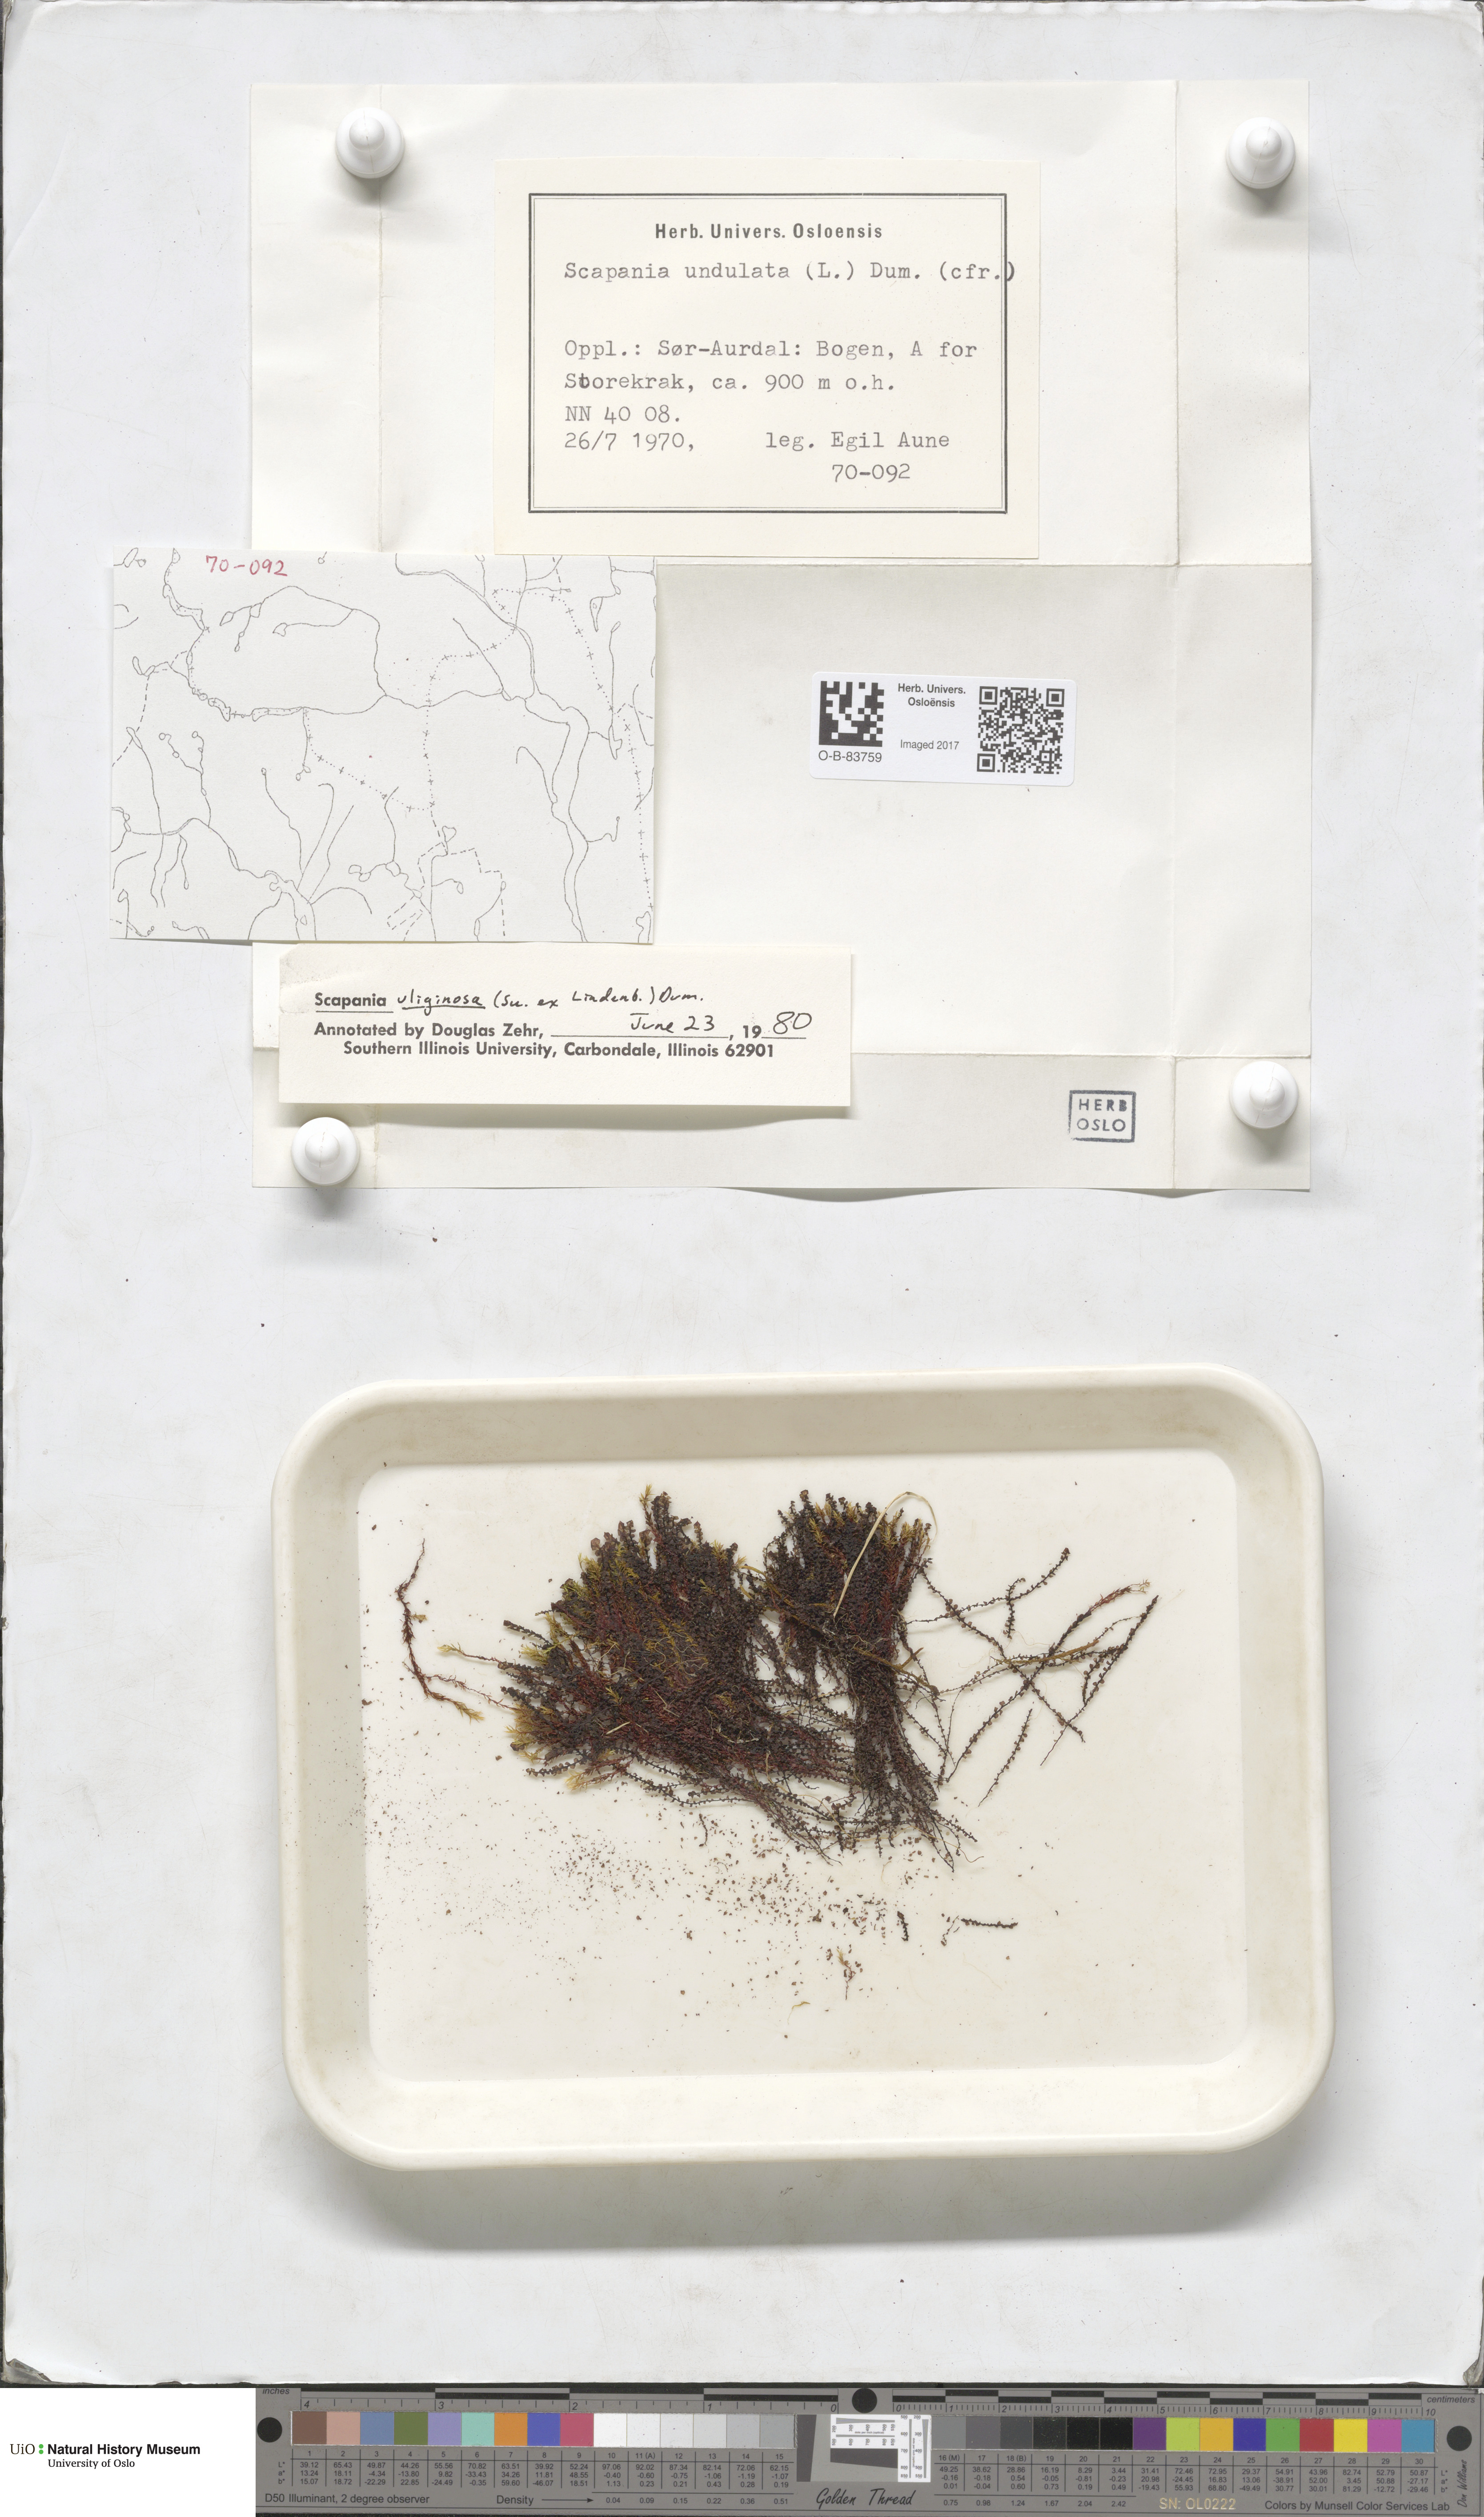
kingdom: Plantae
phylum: Marchantiophyta
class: Jungermanniopsida
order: Jungermanniales
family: Scapaniaceae
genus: Scapania
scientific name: Scapania uliginosa
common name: Marsh earwort
